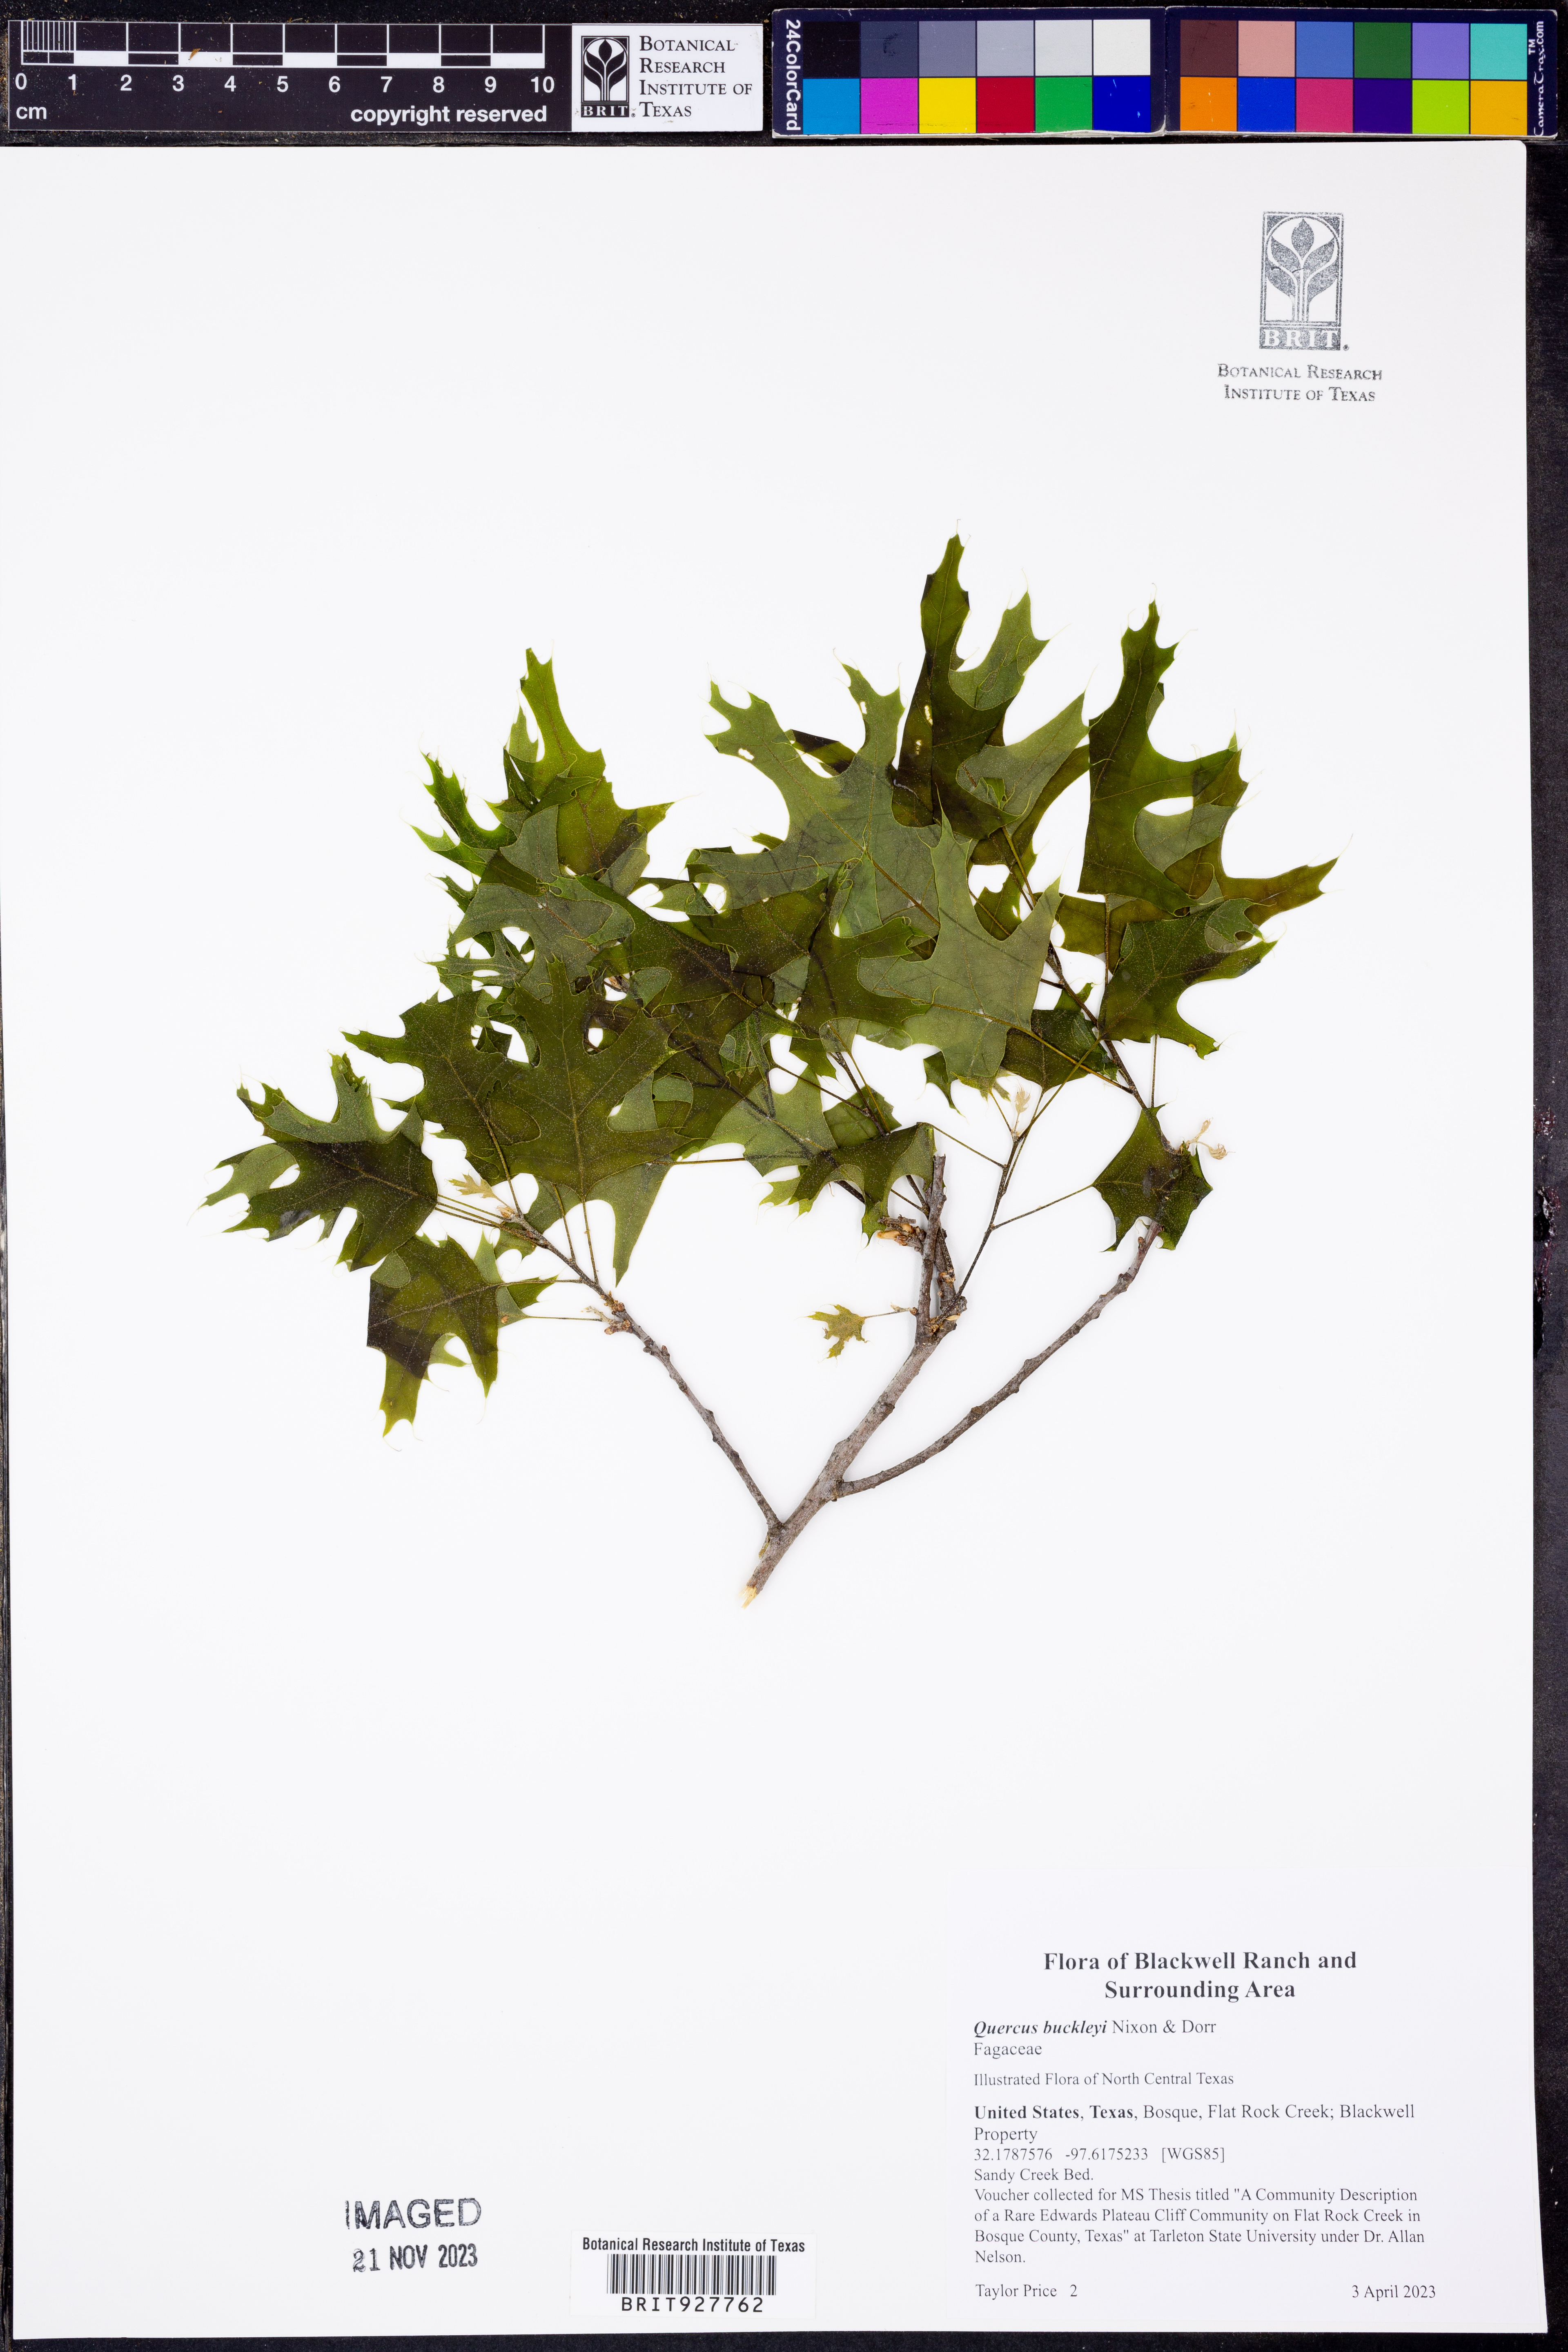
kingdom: Plantae
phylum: Tracheophyta
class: Magnoliopsida
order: Fagales
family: Fagaceae
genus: Quercus
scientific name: Quercus buckleyi
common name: Buckley oak
